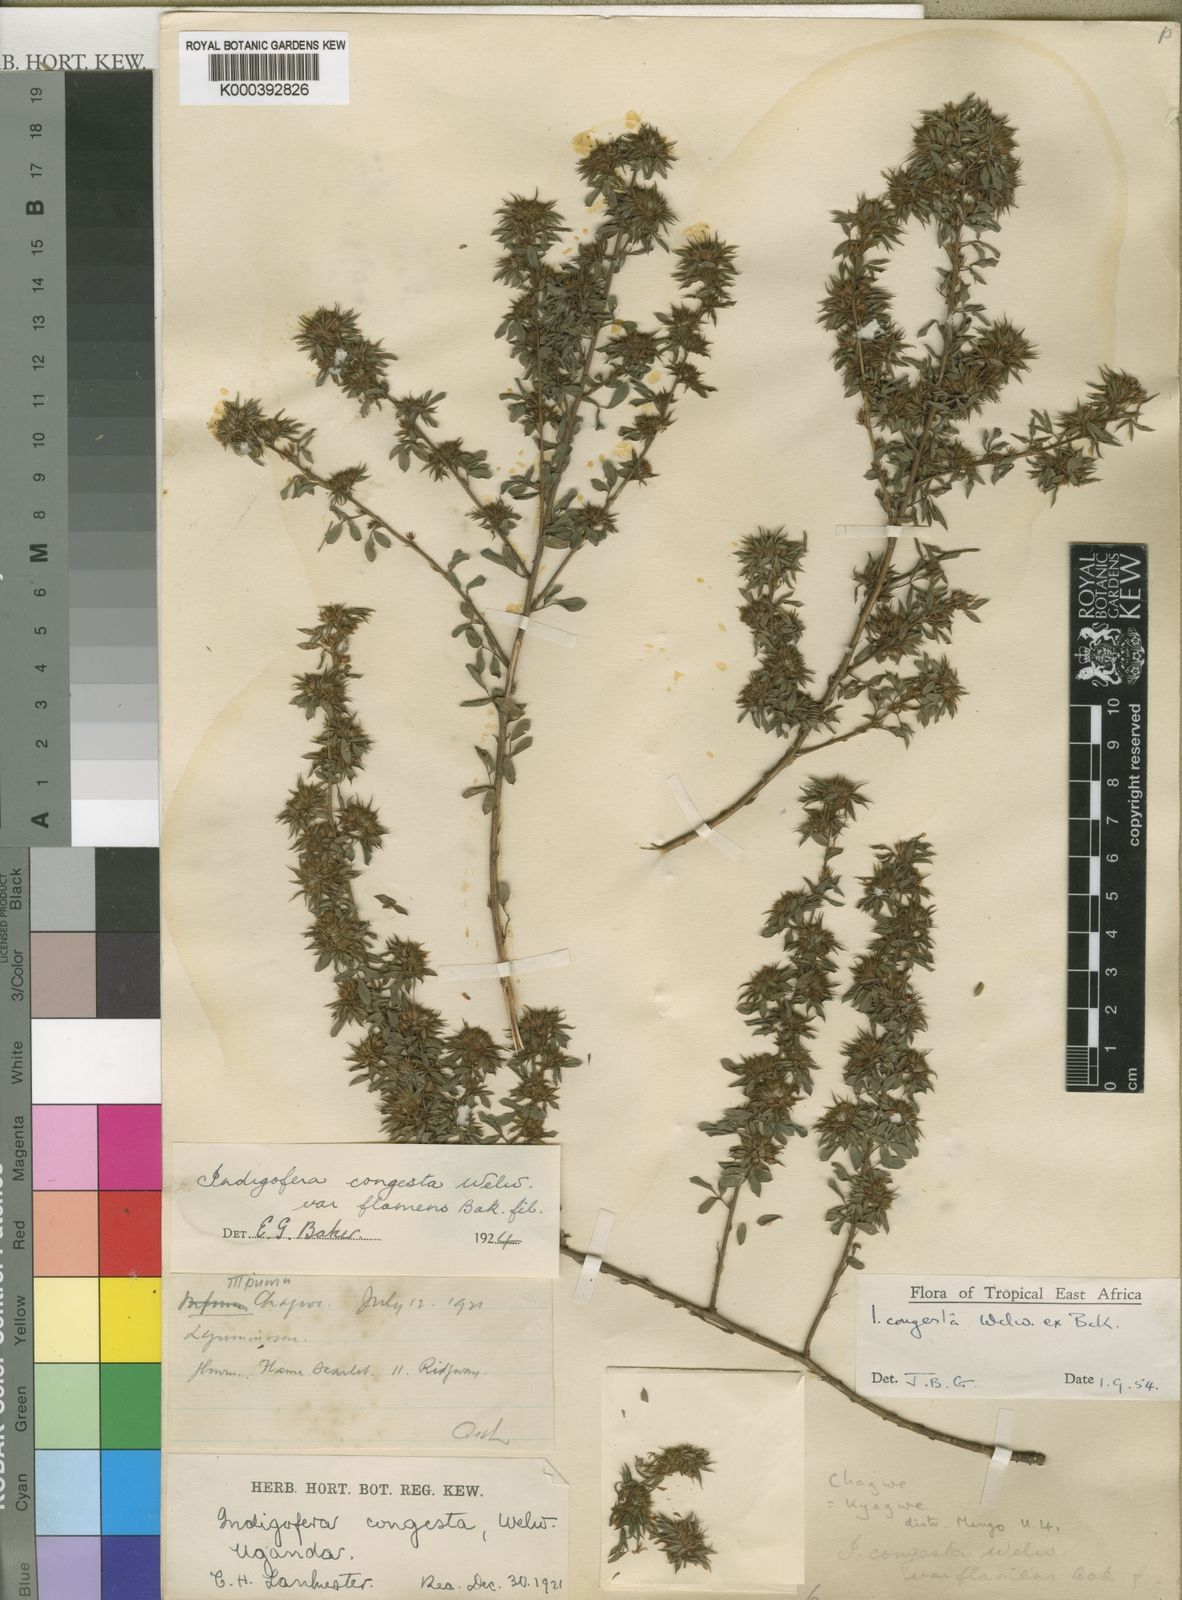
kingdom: Plantae
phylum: Tracheophyta
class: Magnoliopsida
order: Fabales
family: Fabaceae
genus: Indigofera
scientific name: Indigofera congesta
